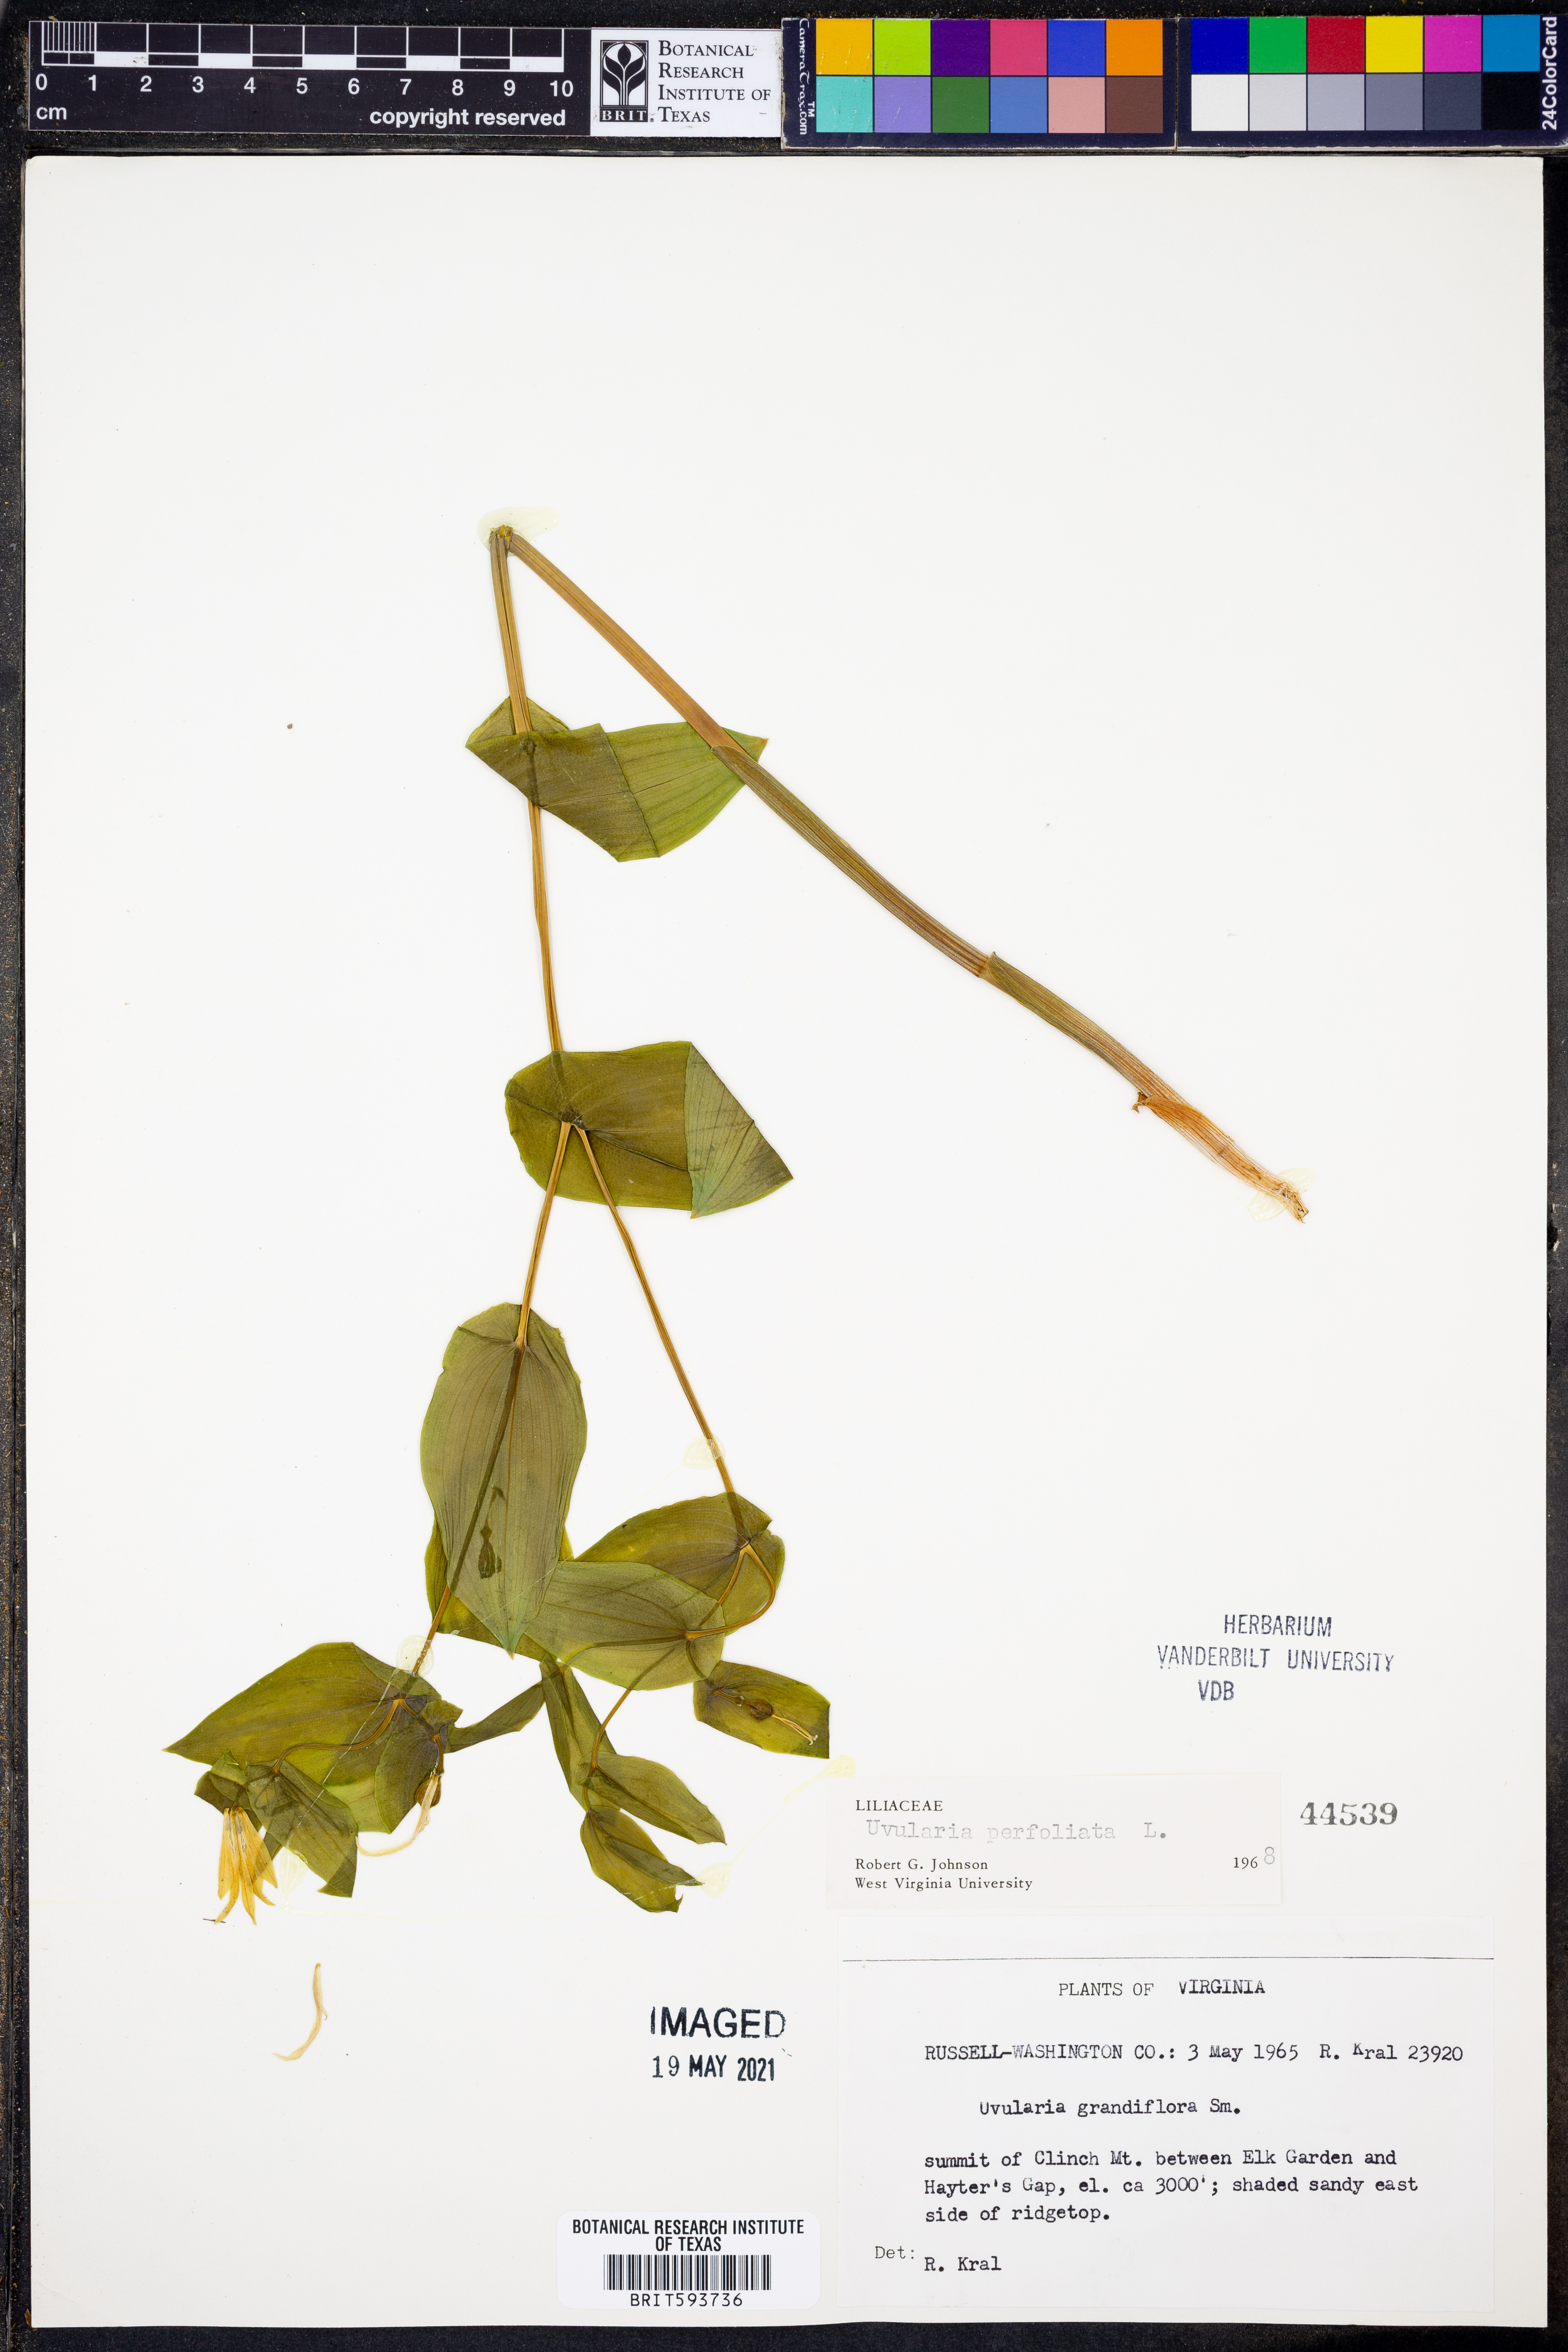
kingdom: Plantae
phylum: Tracheophyta
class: Liliopsida
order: Liliales
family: Colchicaceae
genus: Uvularia
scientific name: Uvularia perfoliata
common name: Perfoliate bellwort
